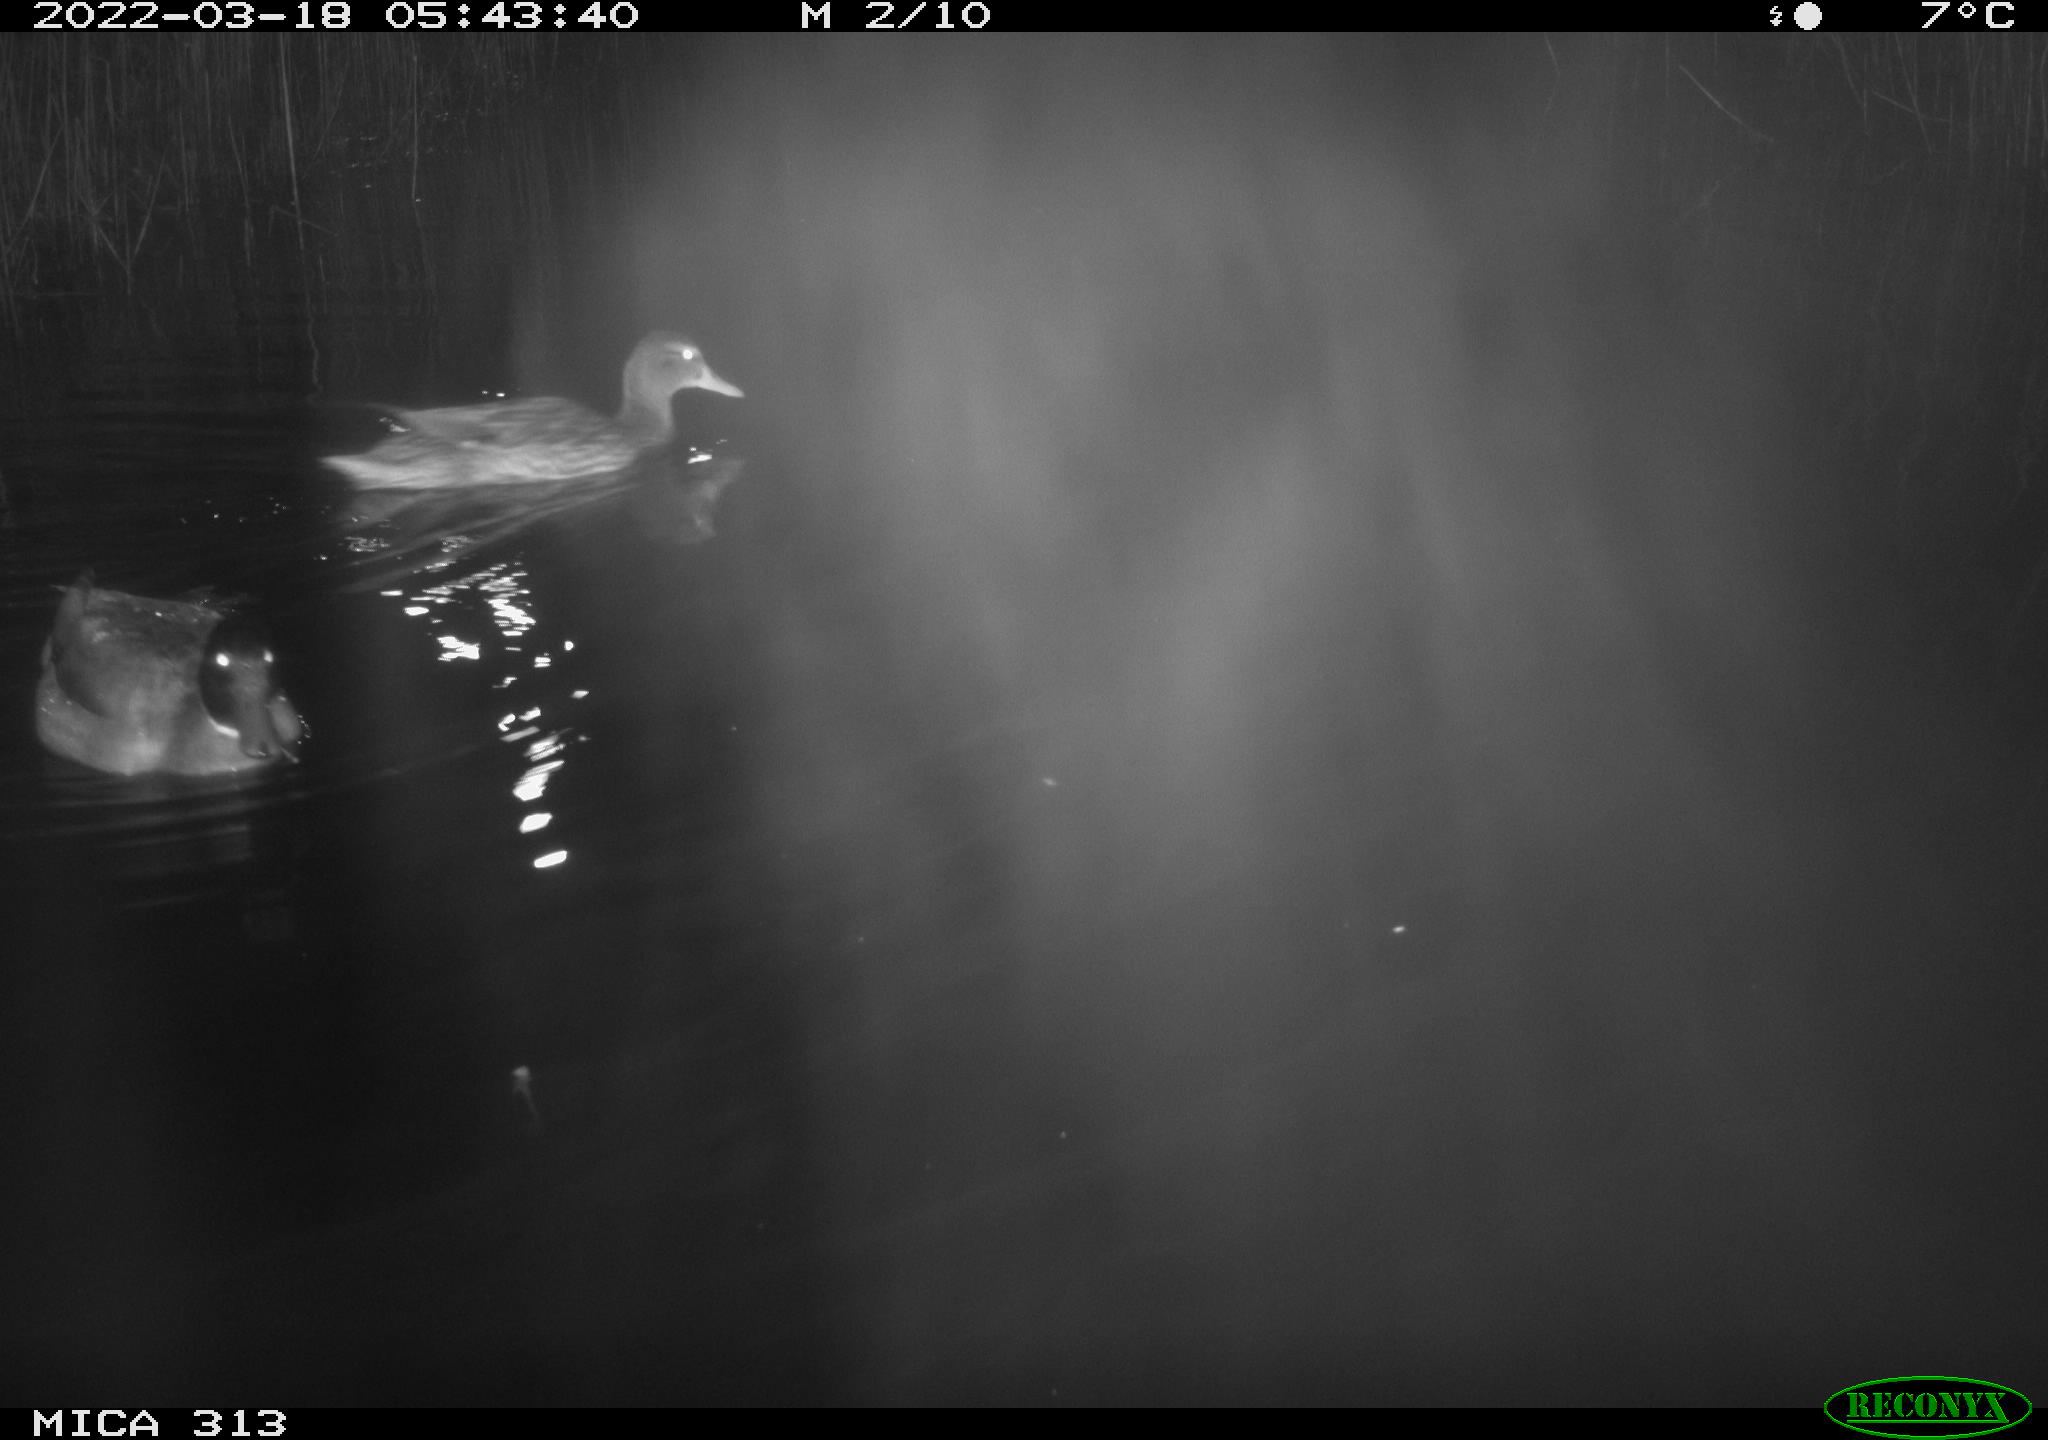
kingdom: Animalia
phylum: Chordata
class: Aves
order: Anseriformes
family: Anatidae
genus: Anas
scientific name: Anas platyrhynchos
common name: Mallard
